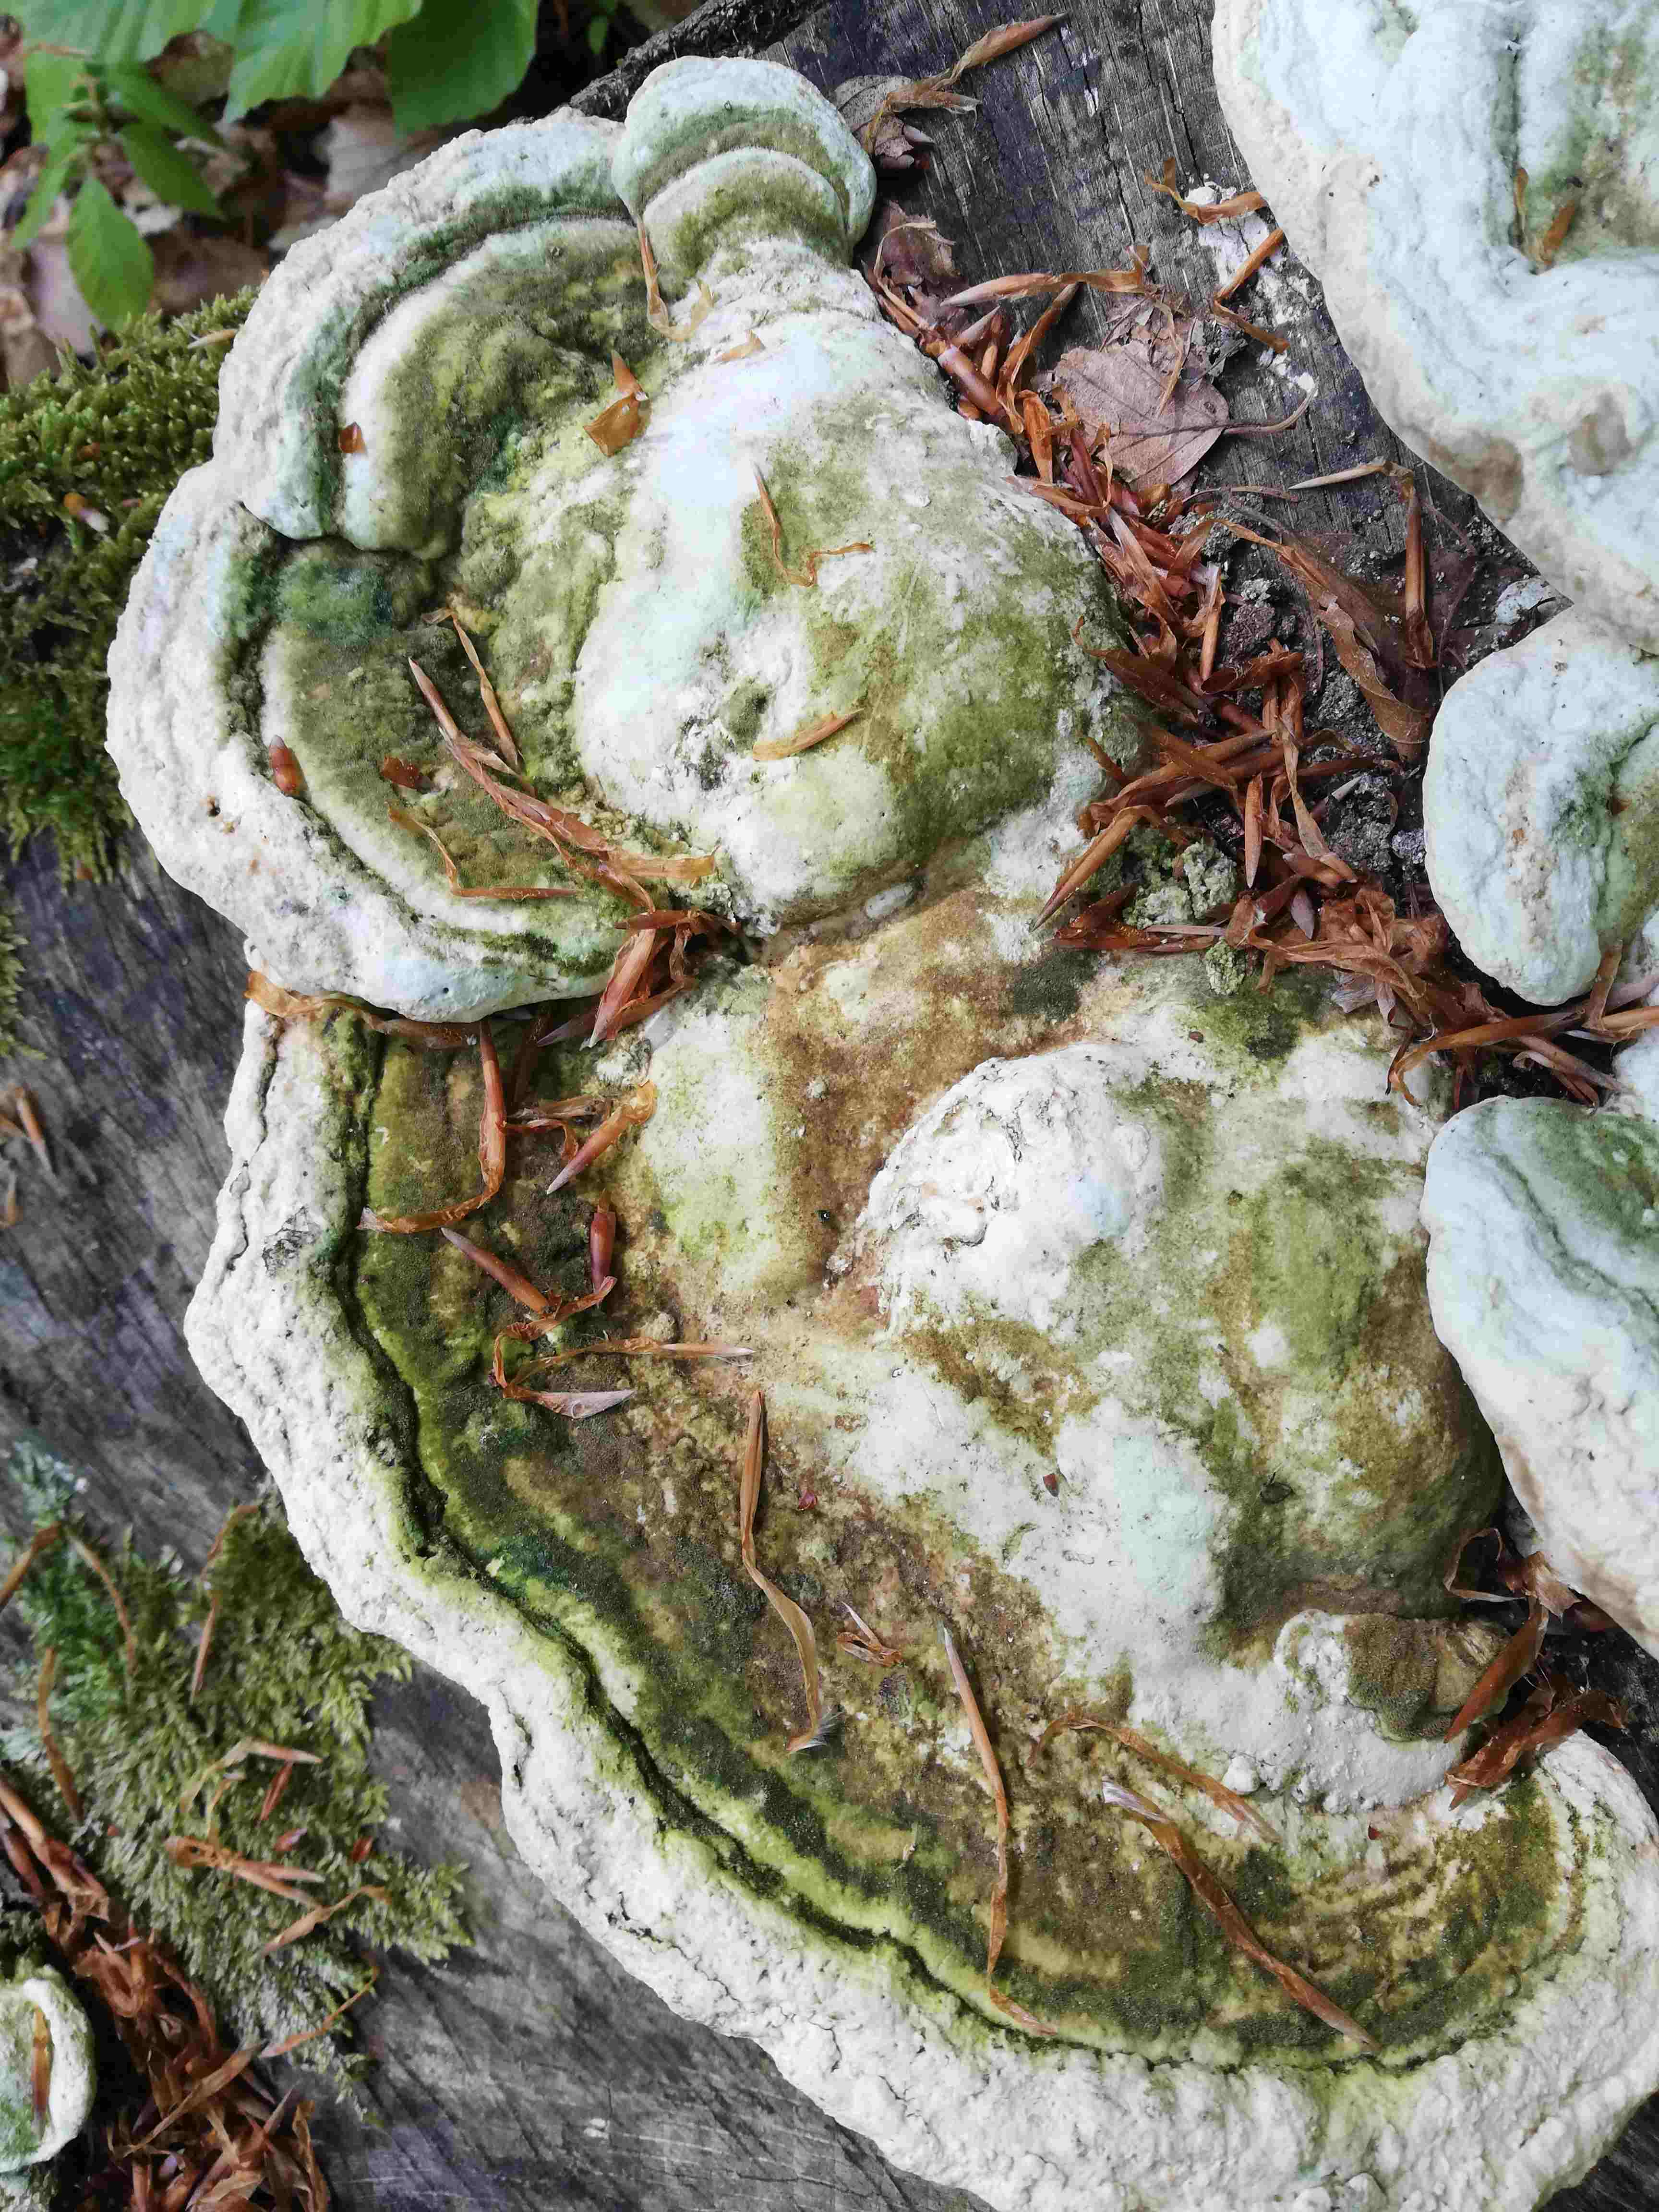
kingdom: Fungi
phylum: Basidiomycota
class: Agaricomycetes
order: Polyporales
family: Polyporaceae
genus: Trametes
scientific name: Trametes gibbosa
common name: puklet læderporesvamp
